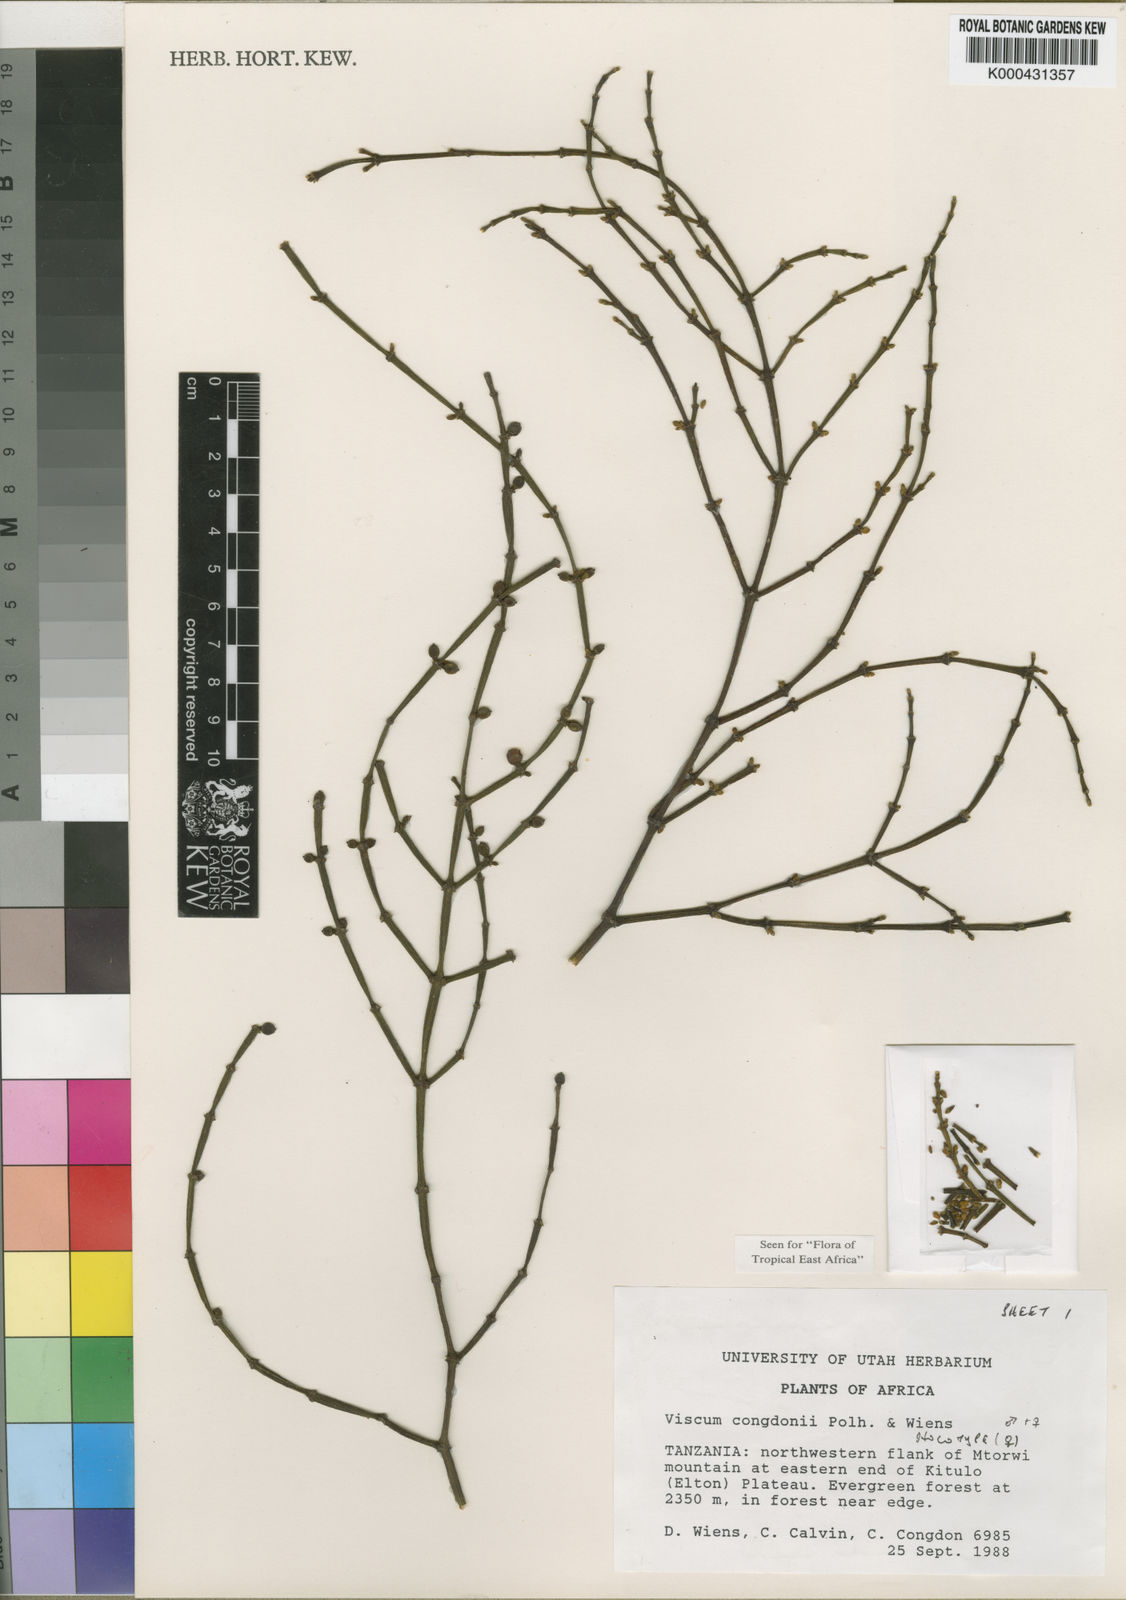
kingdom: Plantae
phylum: Tracheophyta
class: Magnoliopsida
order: Santalales
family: Viscaceae
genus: Viscum
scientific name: Viscum congdonii
